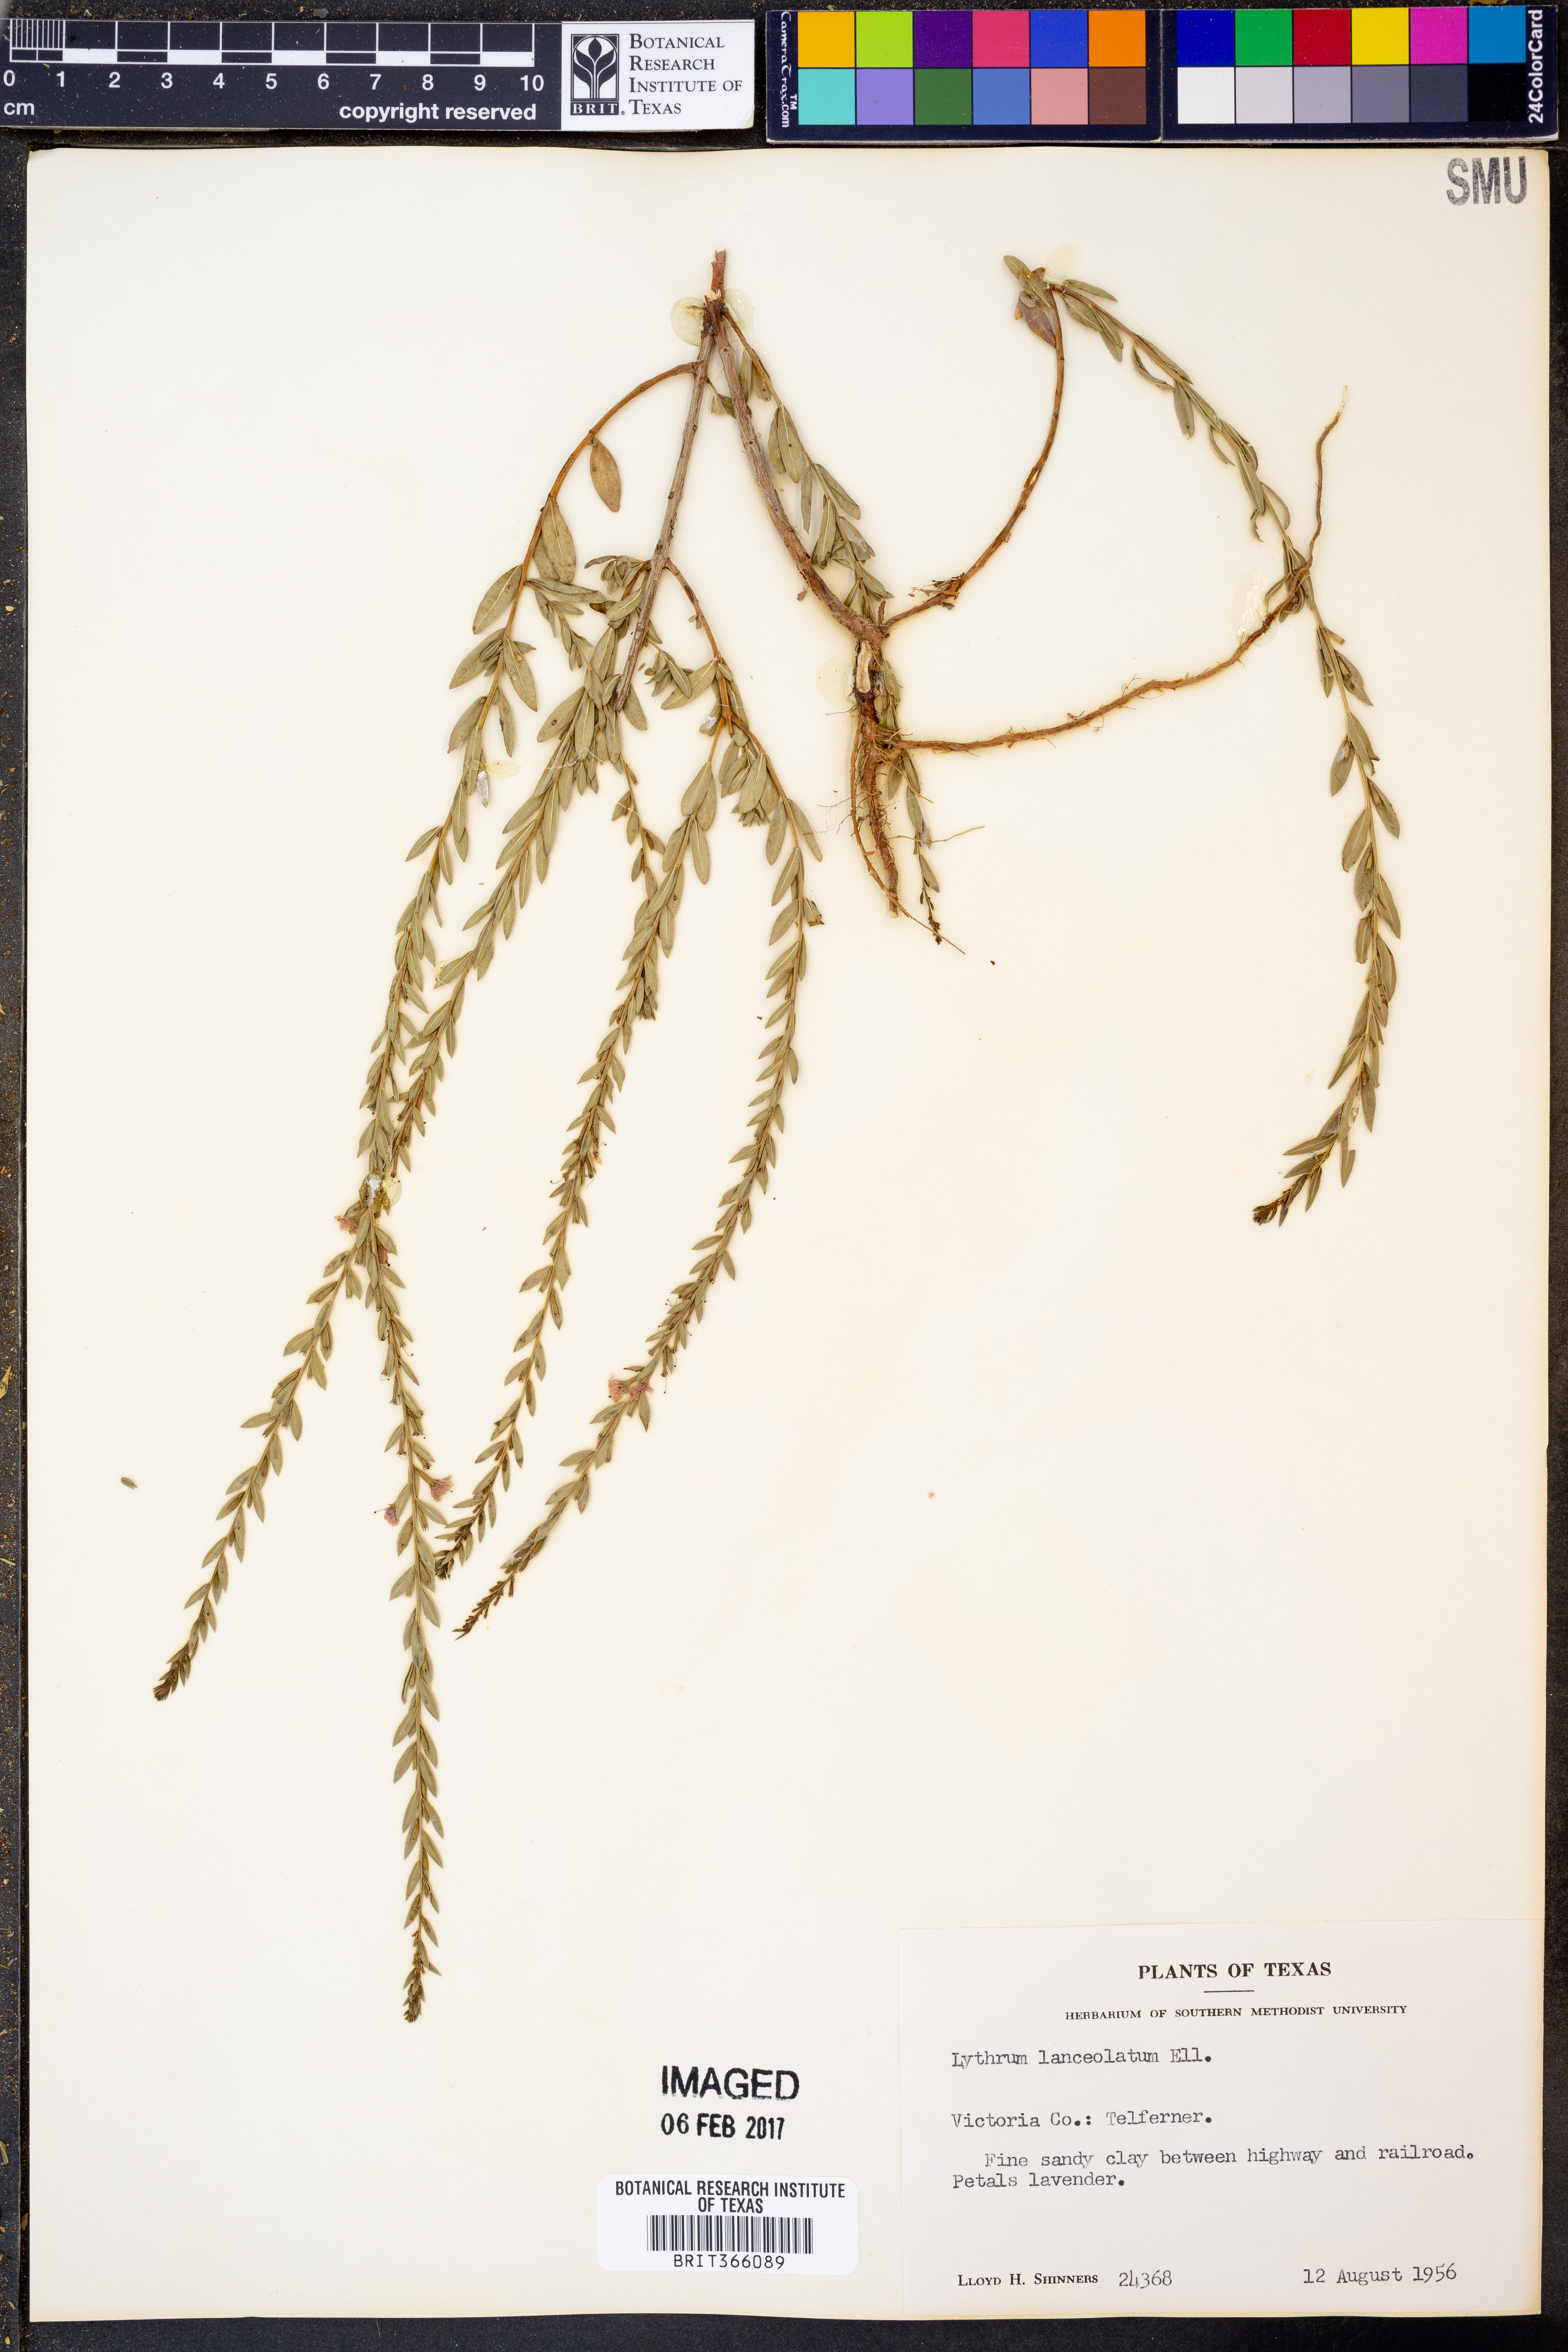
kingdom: Plantae
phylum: Tracheophyta
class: Magnoliopsida
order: Myrtales
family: Lythraceae
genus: Lythrum
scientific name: Lythrum alatum
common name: Winged loosestrife
